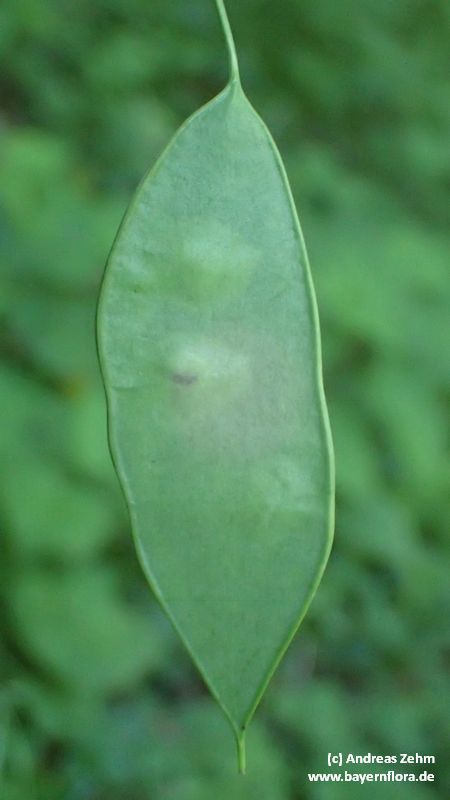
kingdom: Plantae
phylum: Tracheophyta
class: Magnoliopsida
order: Brassicales
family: Brassicaceae
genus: Lunaria
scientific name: Lunaria rediviva
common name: Perennial honesty
